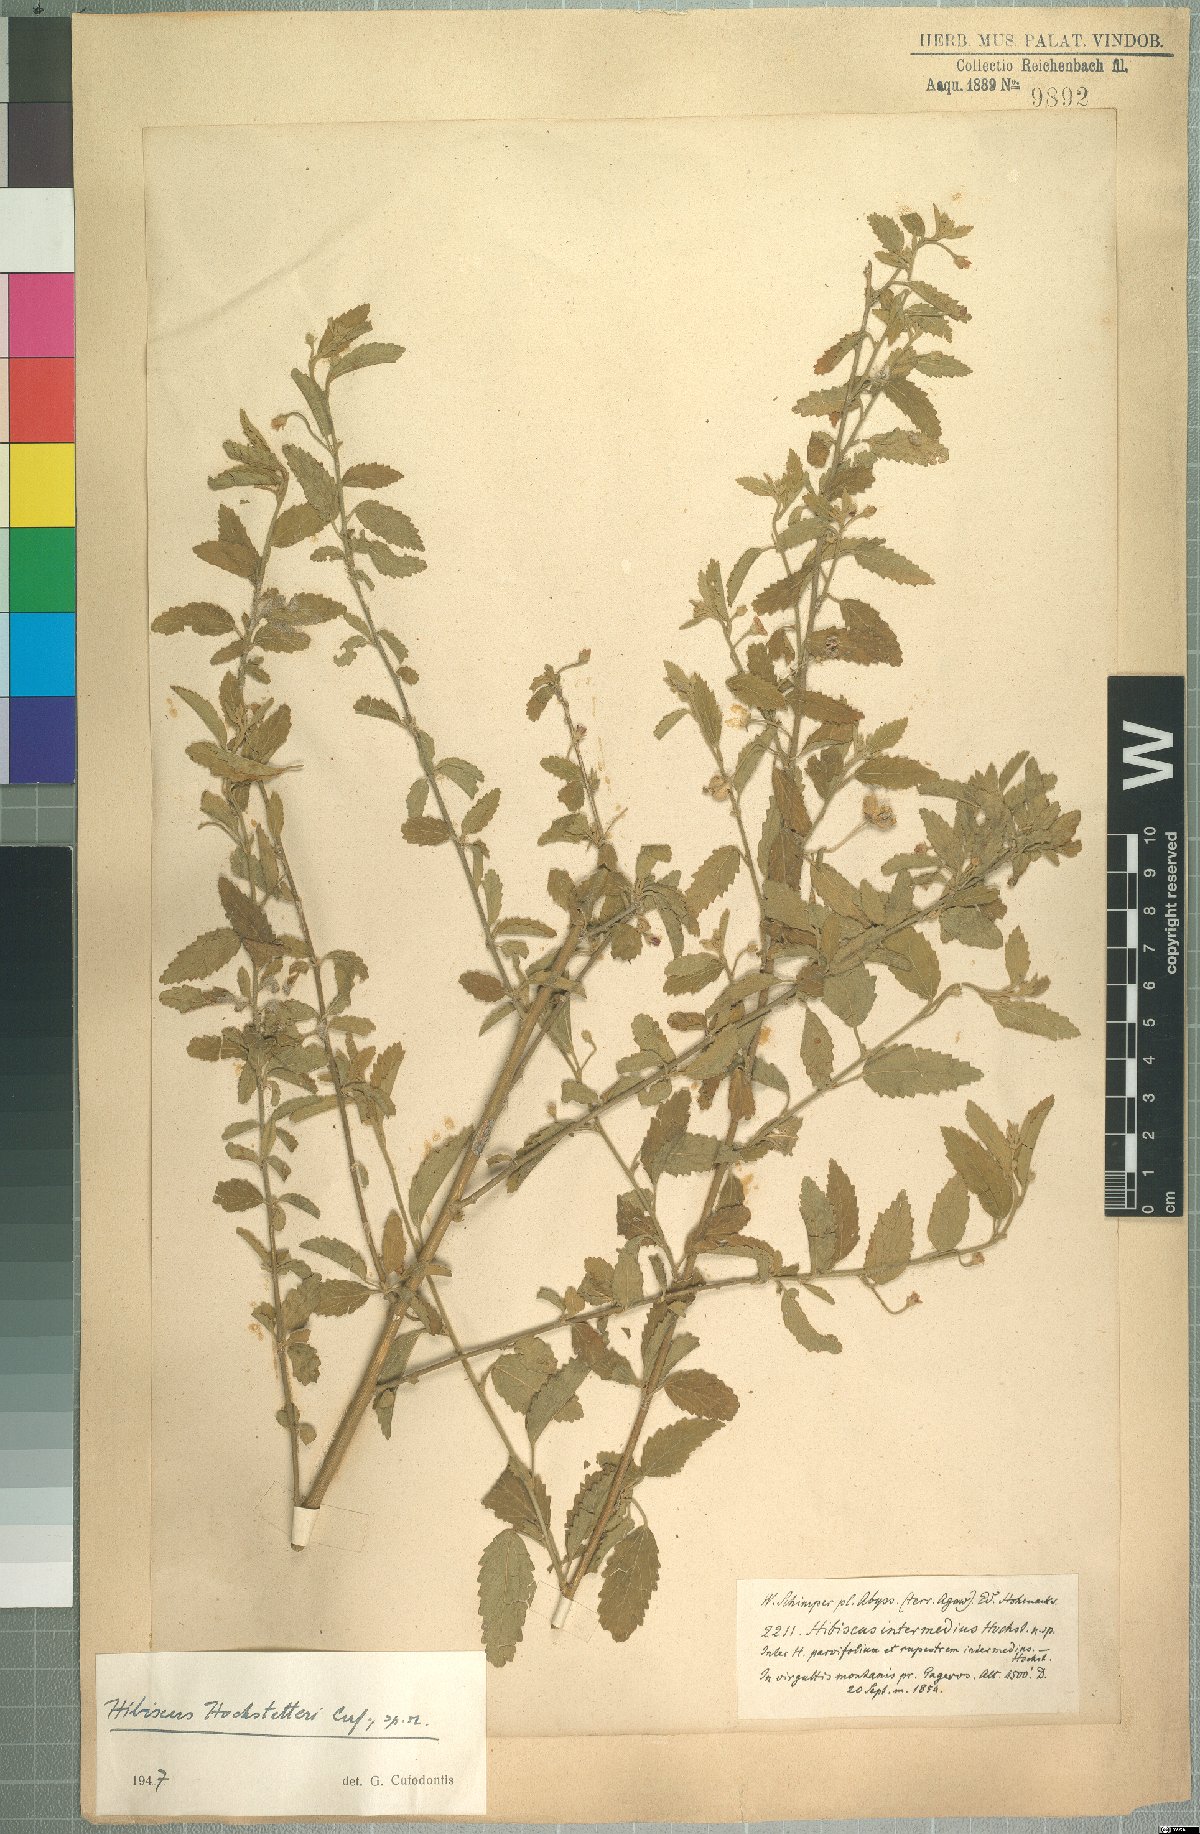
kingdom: Plantae
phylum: Tracheophyta
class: Magnoliopsida
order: Malvales
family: Malvaceae
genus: Hibiscus
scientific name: Hibiscus hochstetteri
